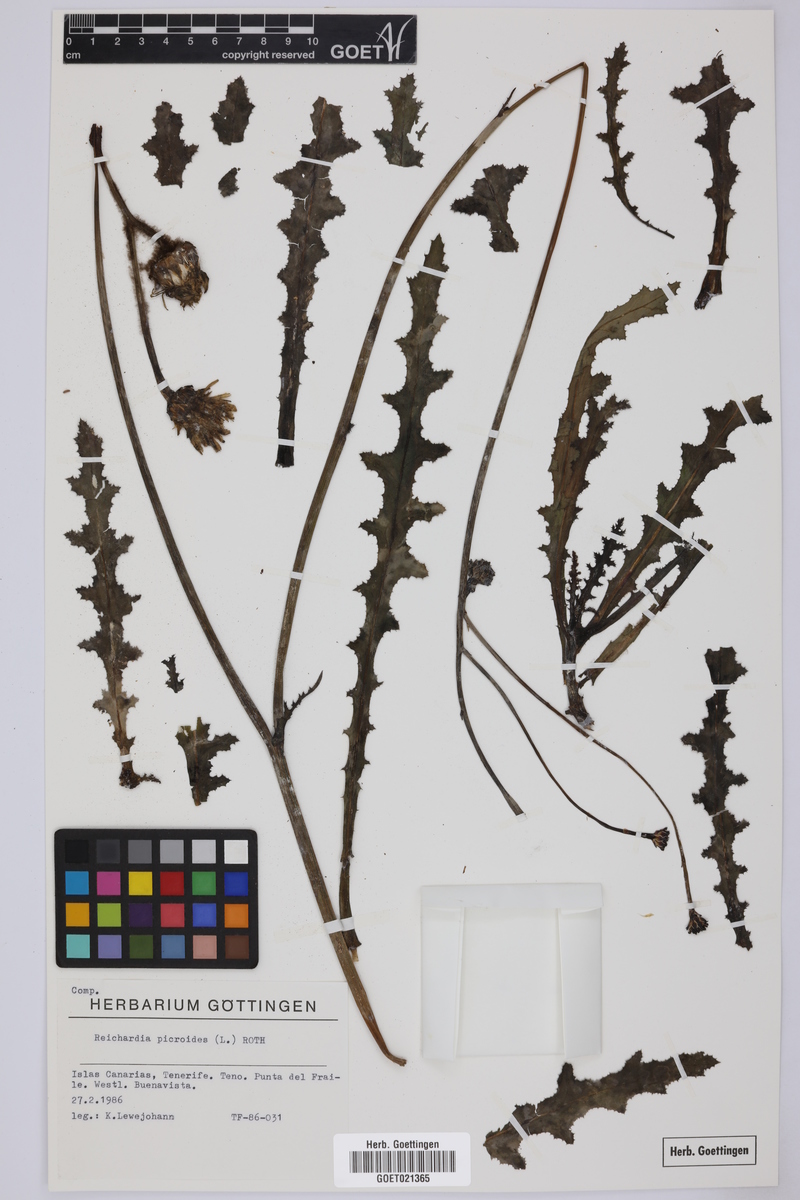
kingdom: Plantae
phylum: Tracheophyta
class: Magnoliopsida
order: Asterales
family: Asteraceae
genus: Reichardia
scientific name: Reichardia picroides
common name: Common brighteyes
